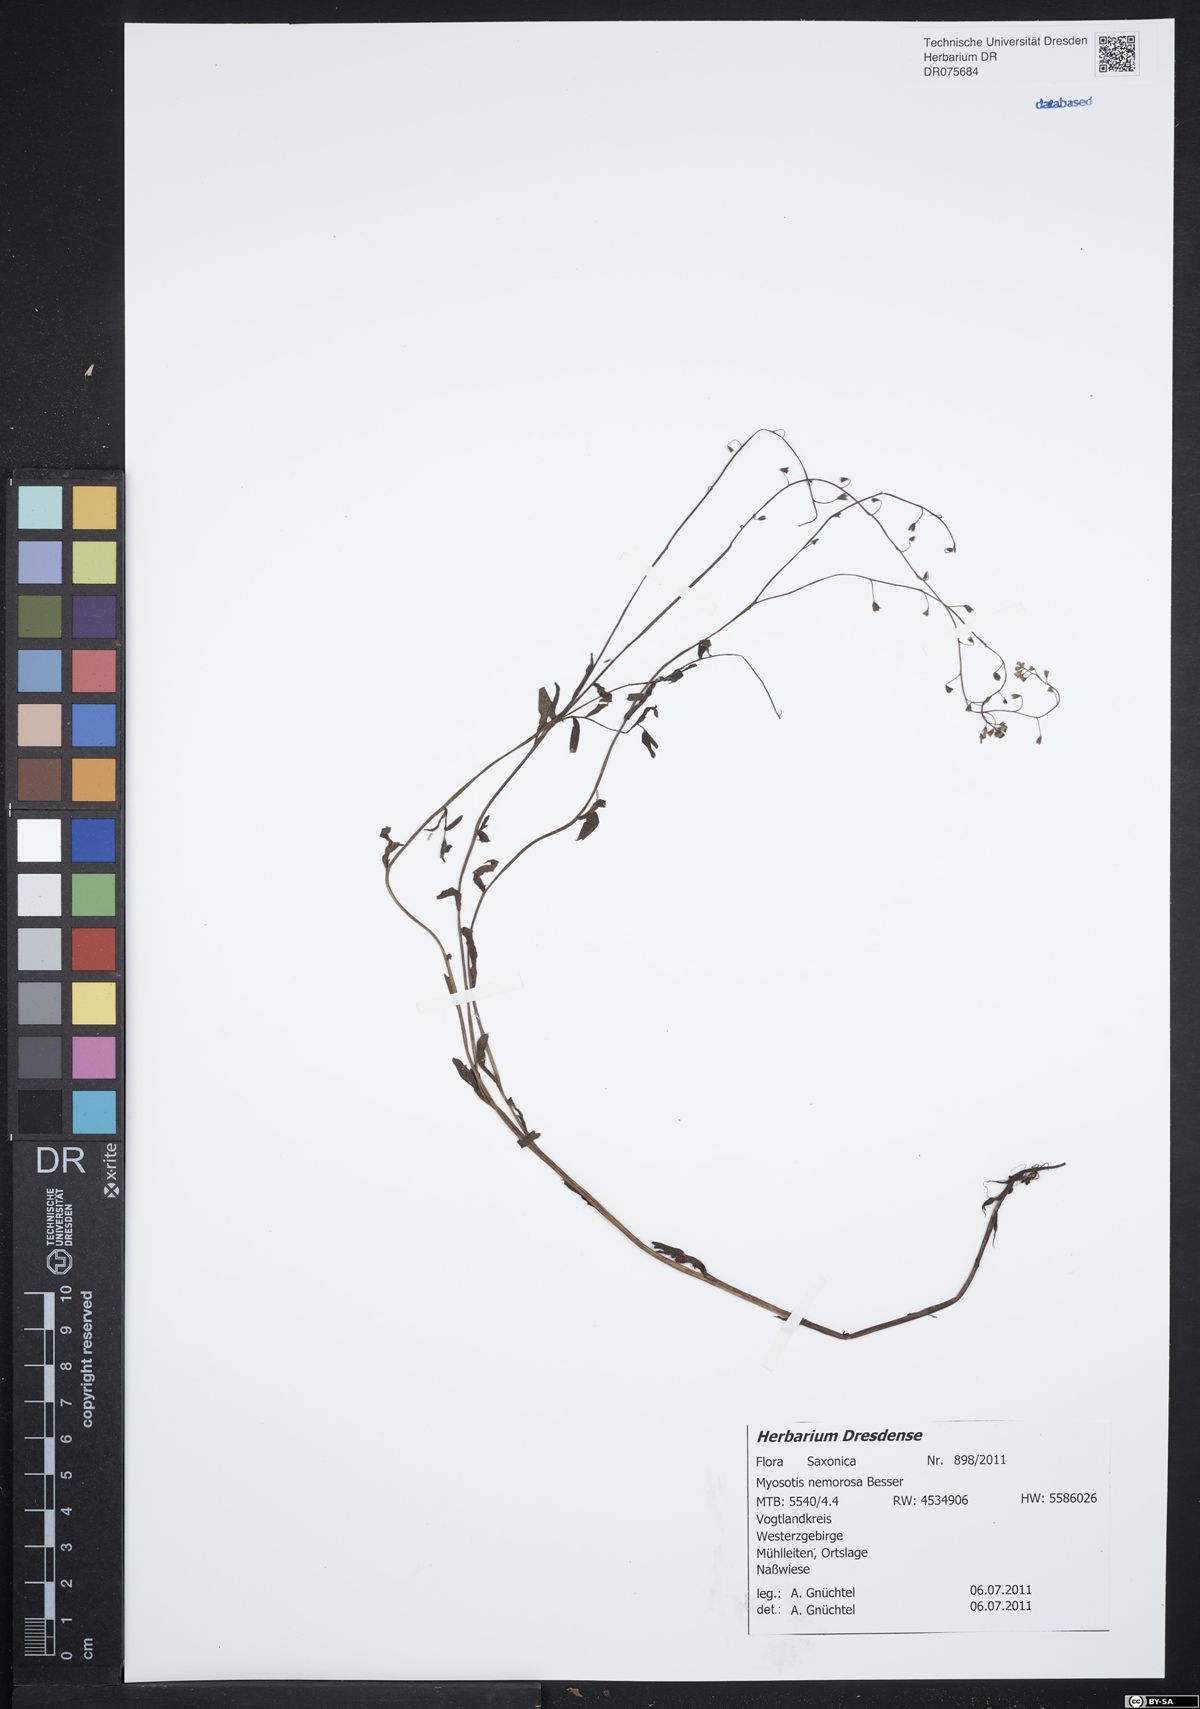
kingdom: Plantae
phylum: Tracheophyta
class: Magnoliopsida
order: Boraginales
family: Boraginaceae
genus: Myosotis
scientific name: Myosotis nemorosa
